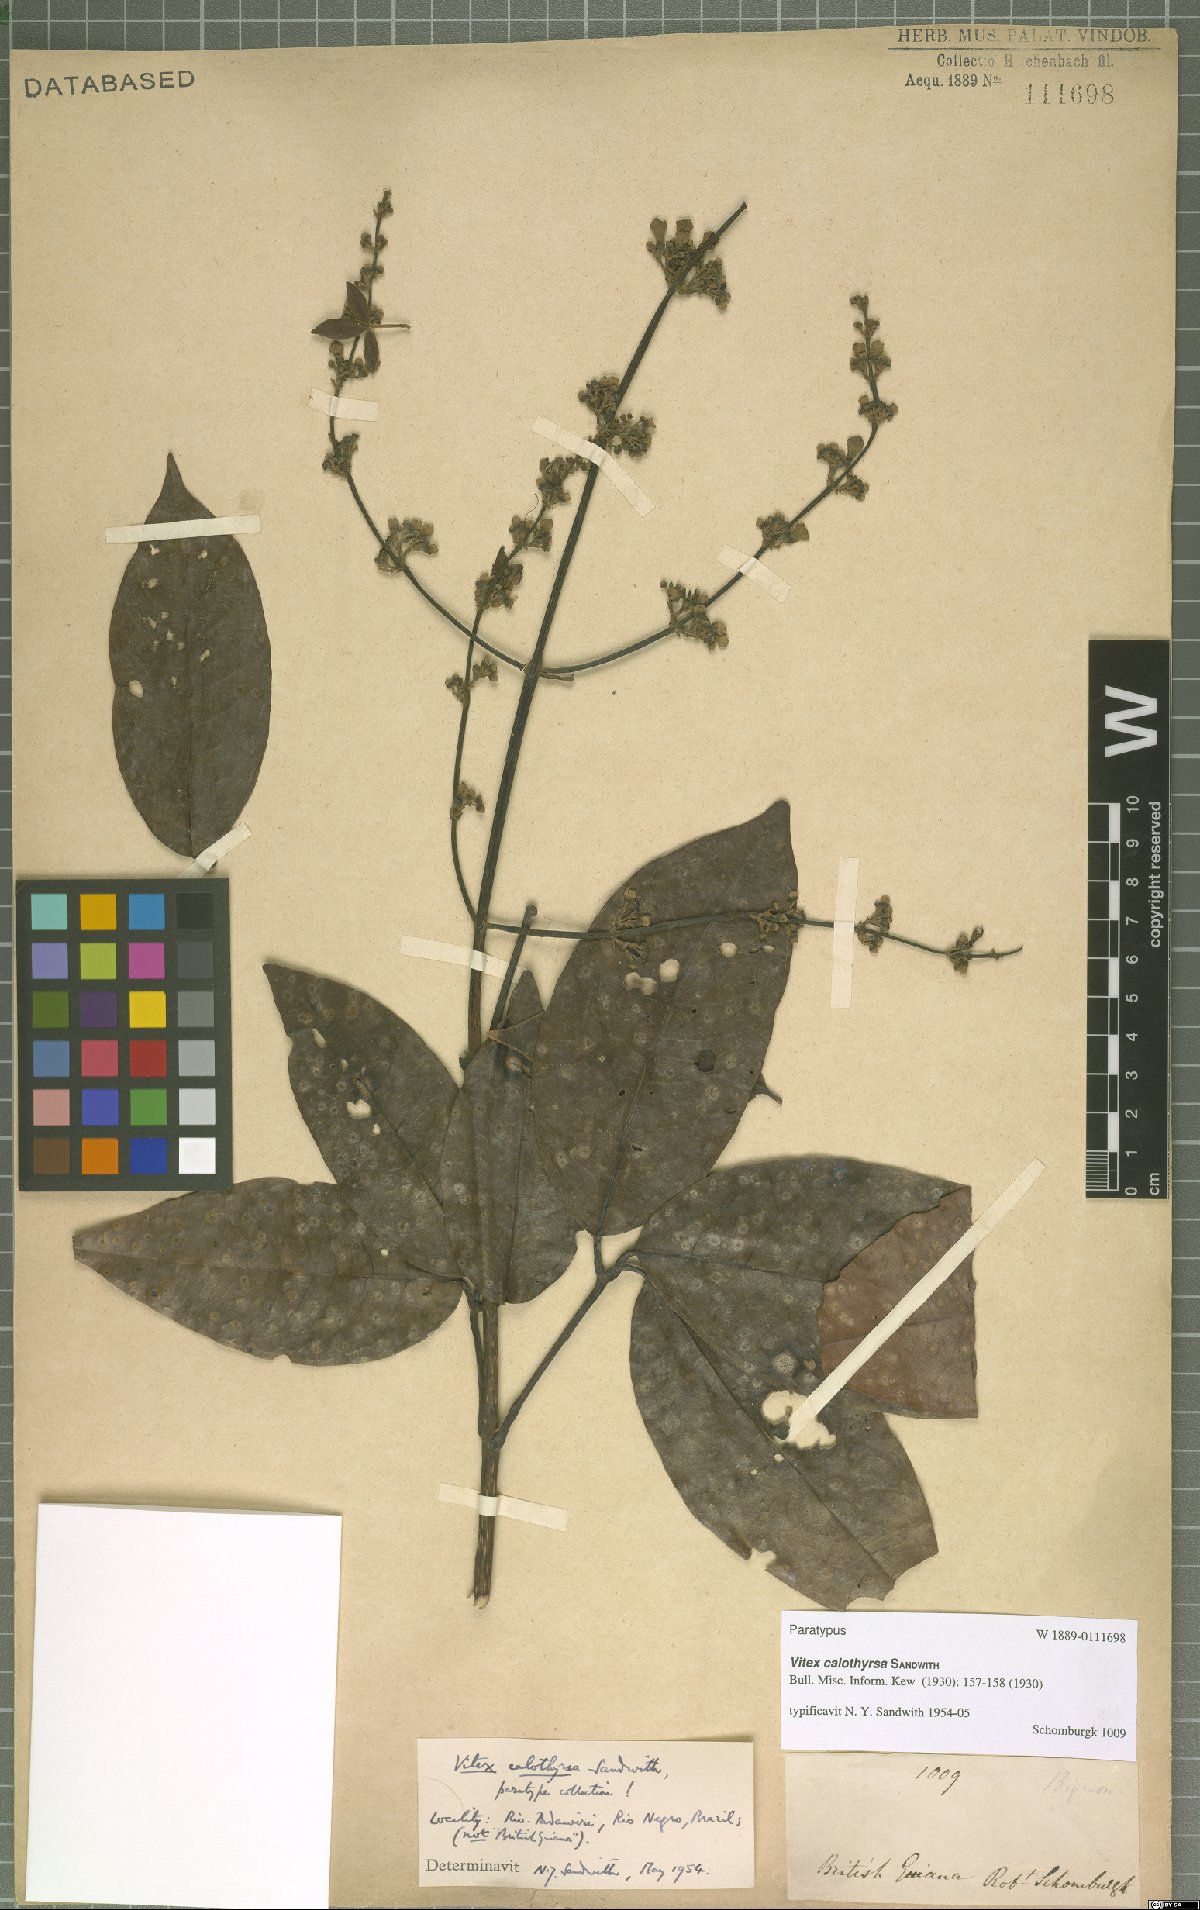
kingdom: Plantae
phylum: Tracheophyta
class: Magnoliopsida
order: Lamiales
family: Lamiaceae
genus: Vitex
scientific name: Vitex calothyrsa
